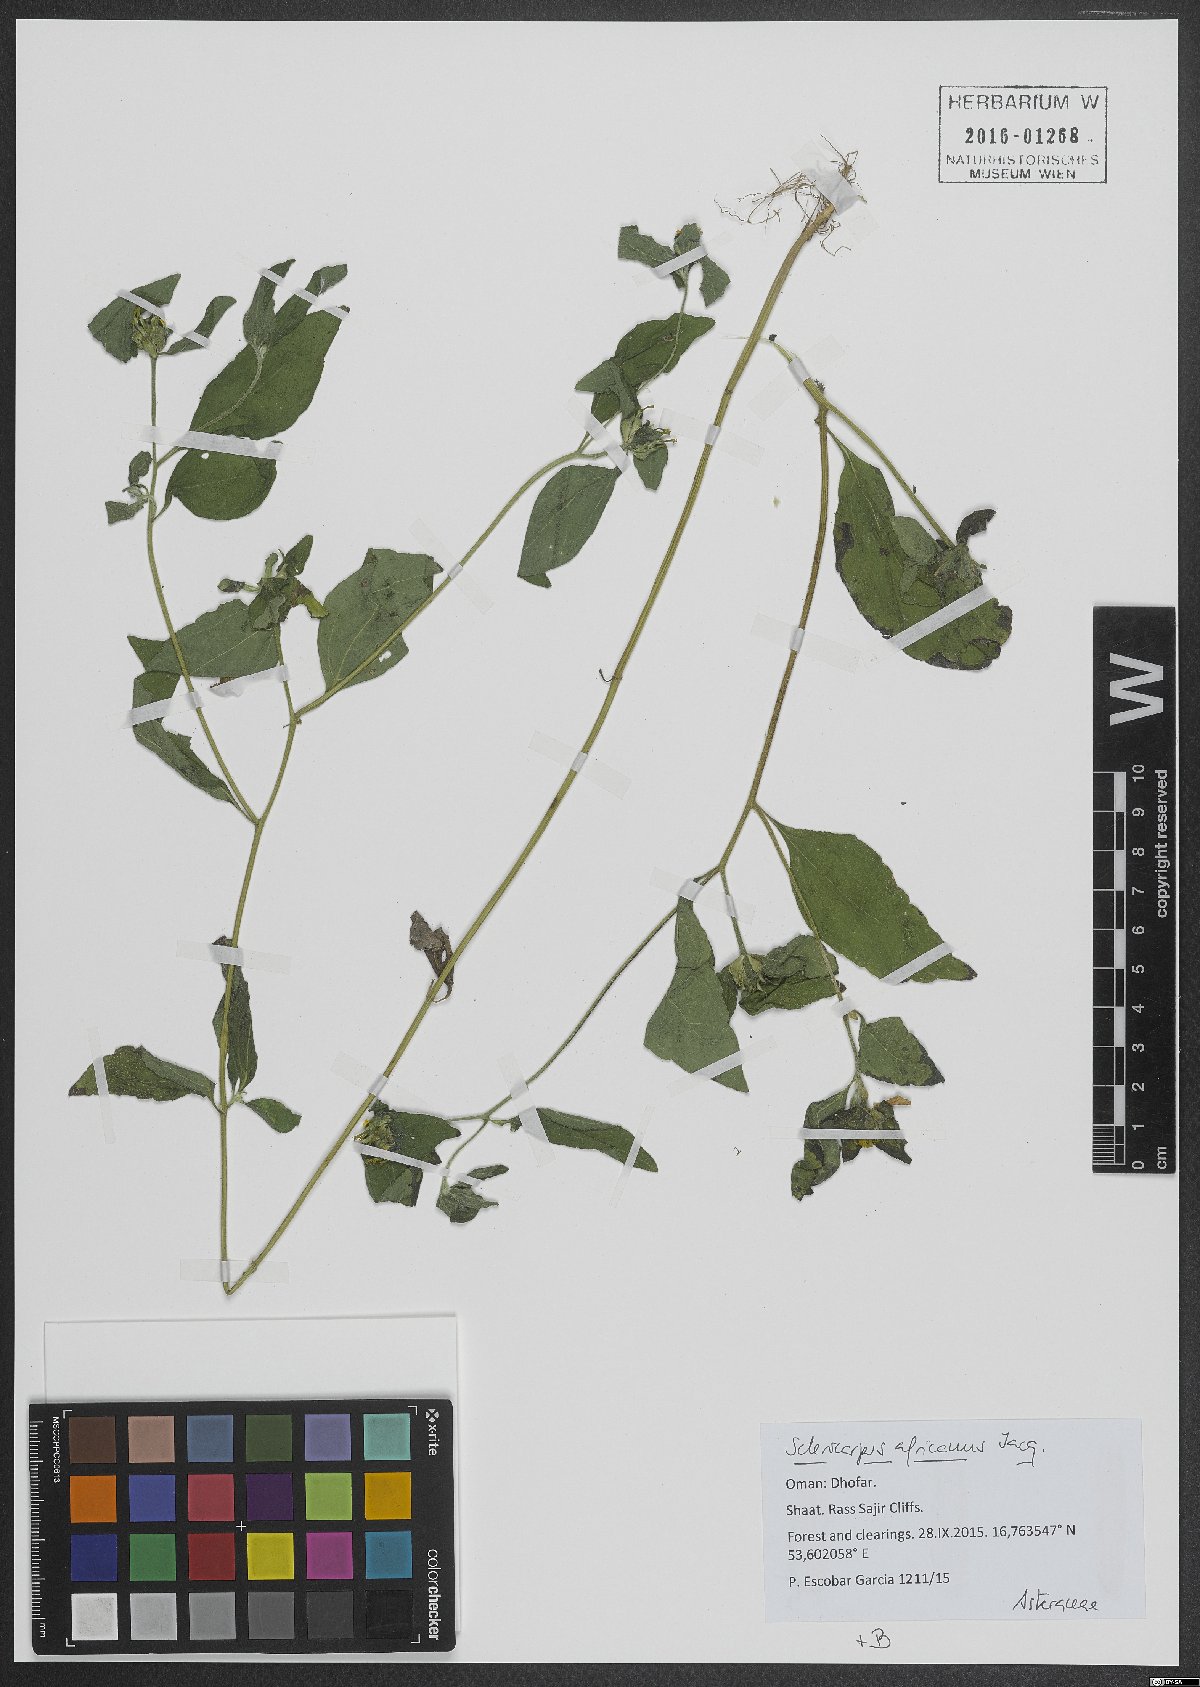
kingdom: Plantae
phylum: Tracheophyta
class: Magnoliopsida
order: Asterales
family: Asteraceae
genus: Sclerocarpus
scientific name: Sclerocarpus africanus
